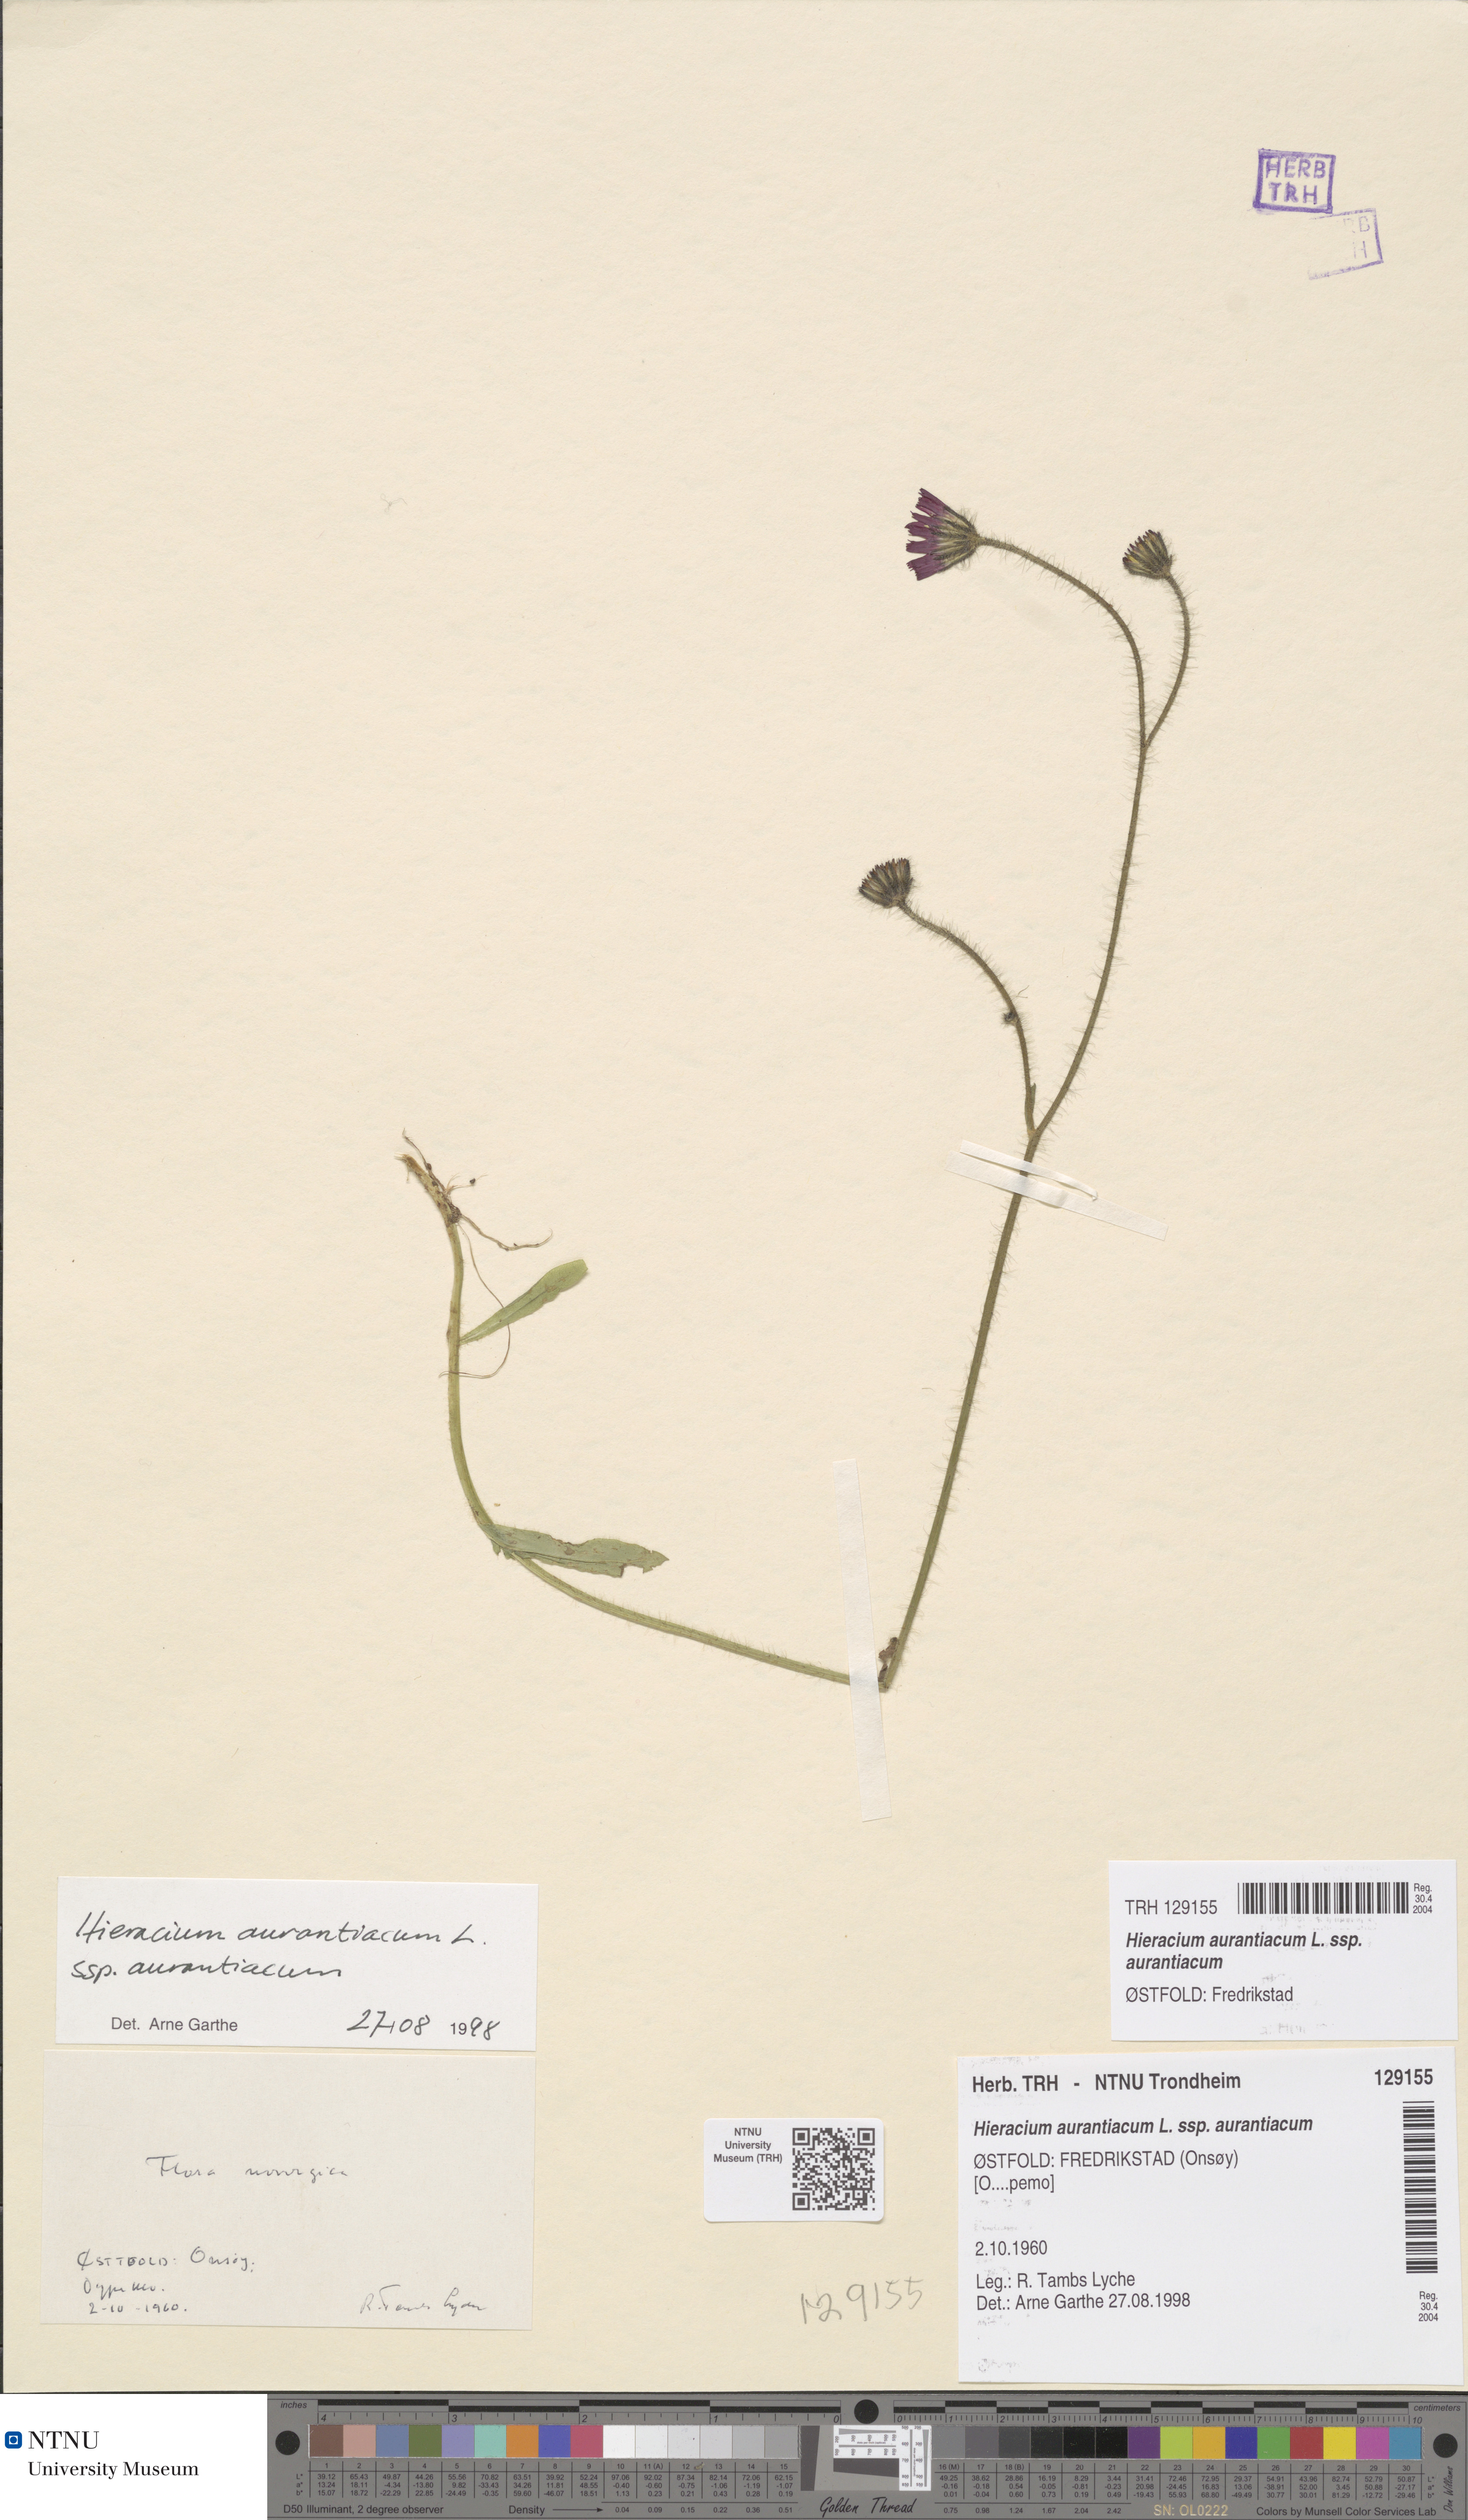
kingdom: Plantae
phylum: Tracheophyta
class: Magnoliopsida
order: Asterales
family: Asteraceae
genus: Pilosella
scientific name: Pilosella aurantiaca
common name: Fox-and-cubs
